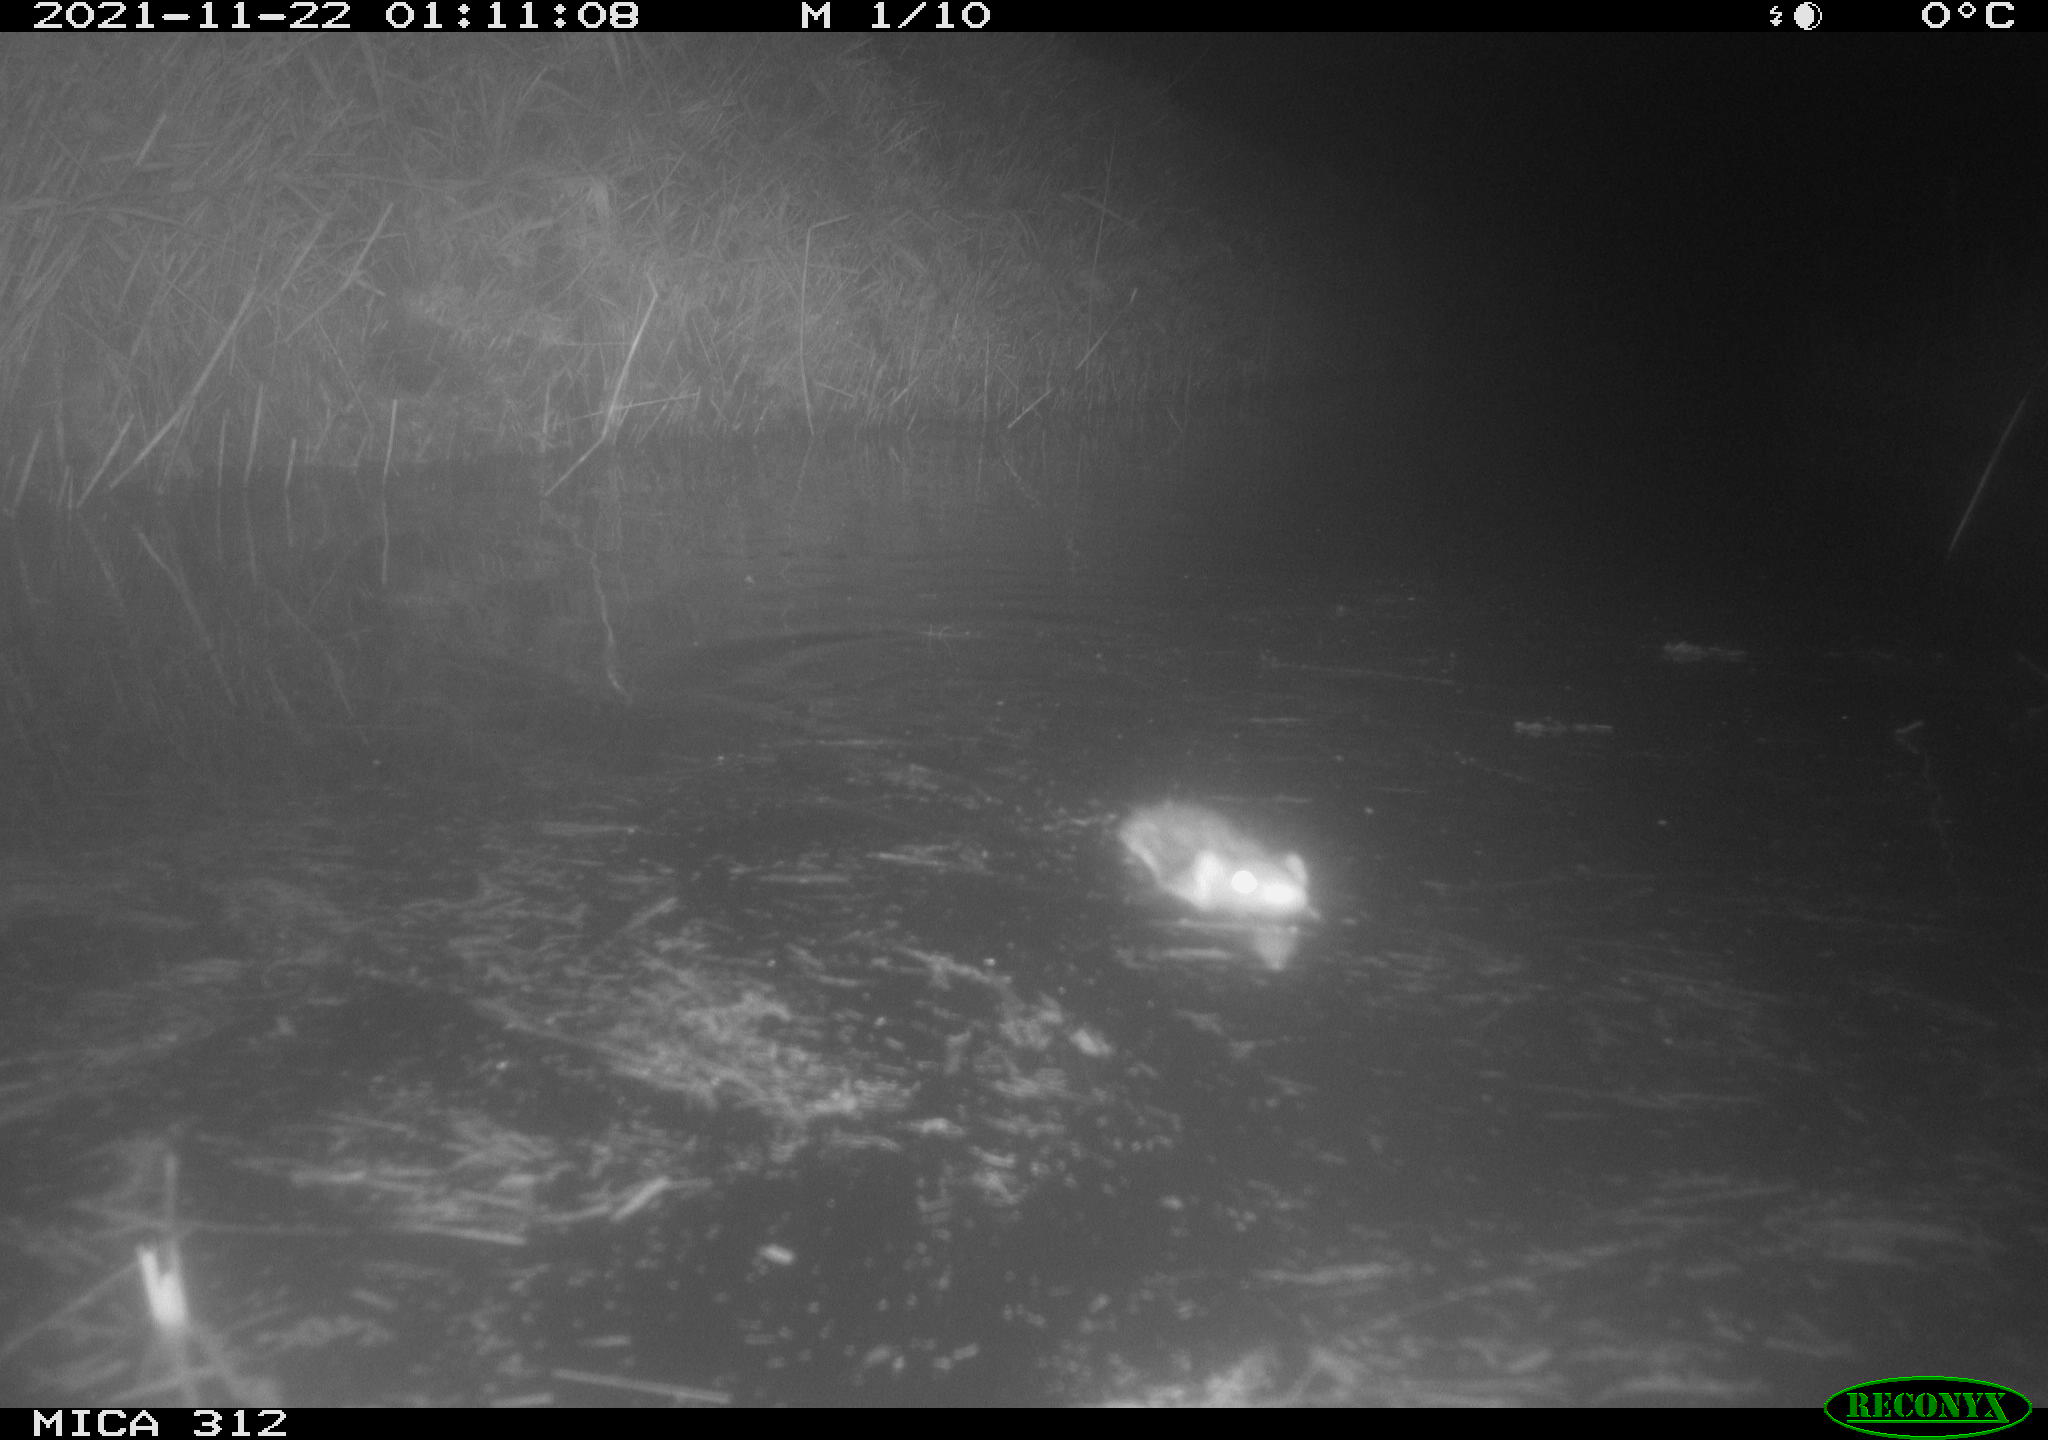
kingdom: Animalia
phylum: Chordata
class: Mammalia
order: Rodentia
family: Muridae
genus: Rattus
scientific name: Rattus norvegicus
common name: Brown rat
